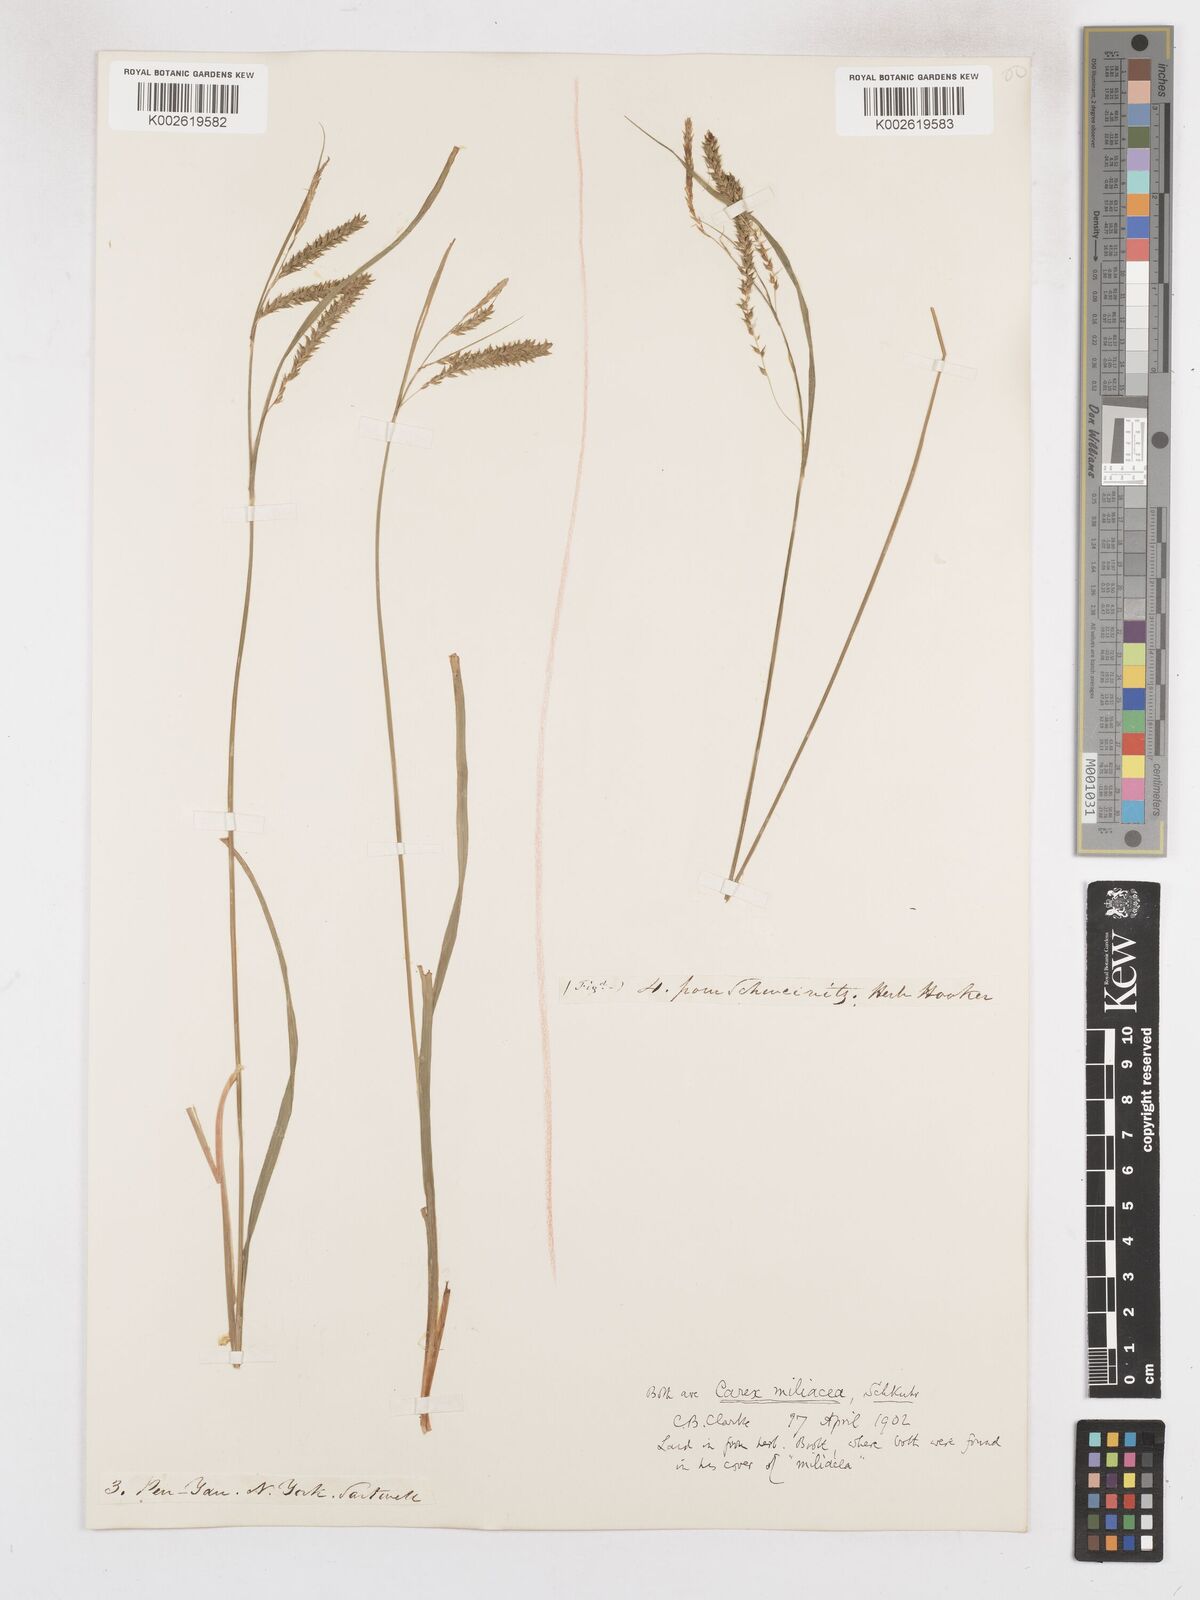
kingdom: Plantae
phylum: Tracheophyta
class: Liliopsida
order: Poales
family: Cyperaceae
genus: Carex
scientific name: Carex prasina
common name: Drooping sedge
